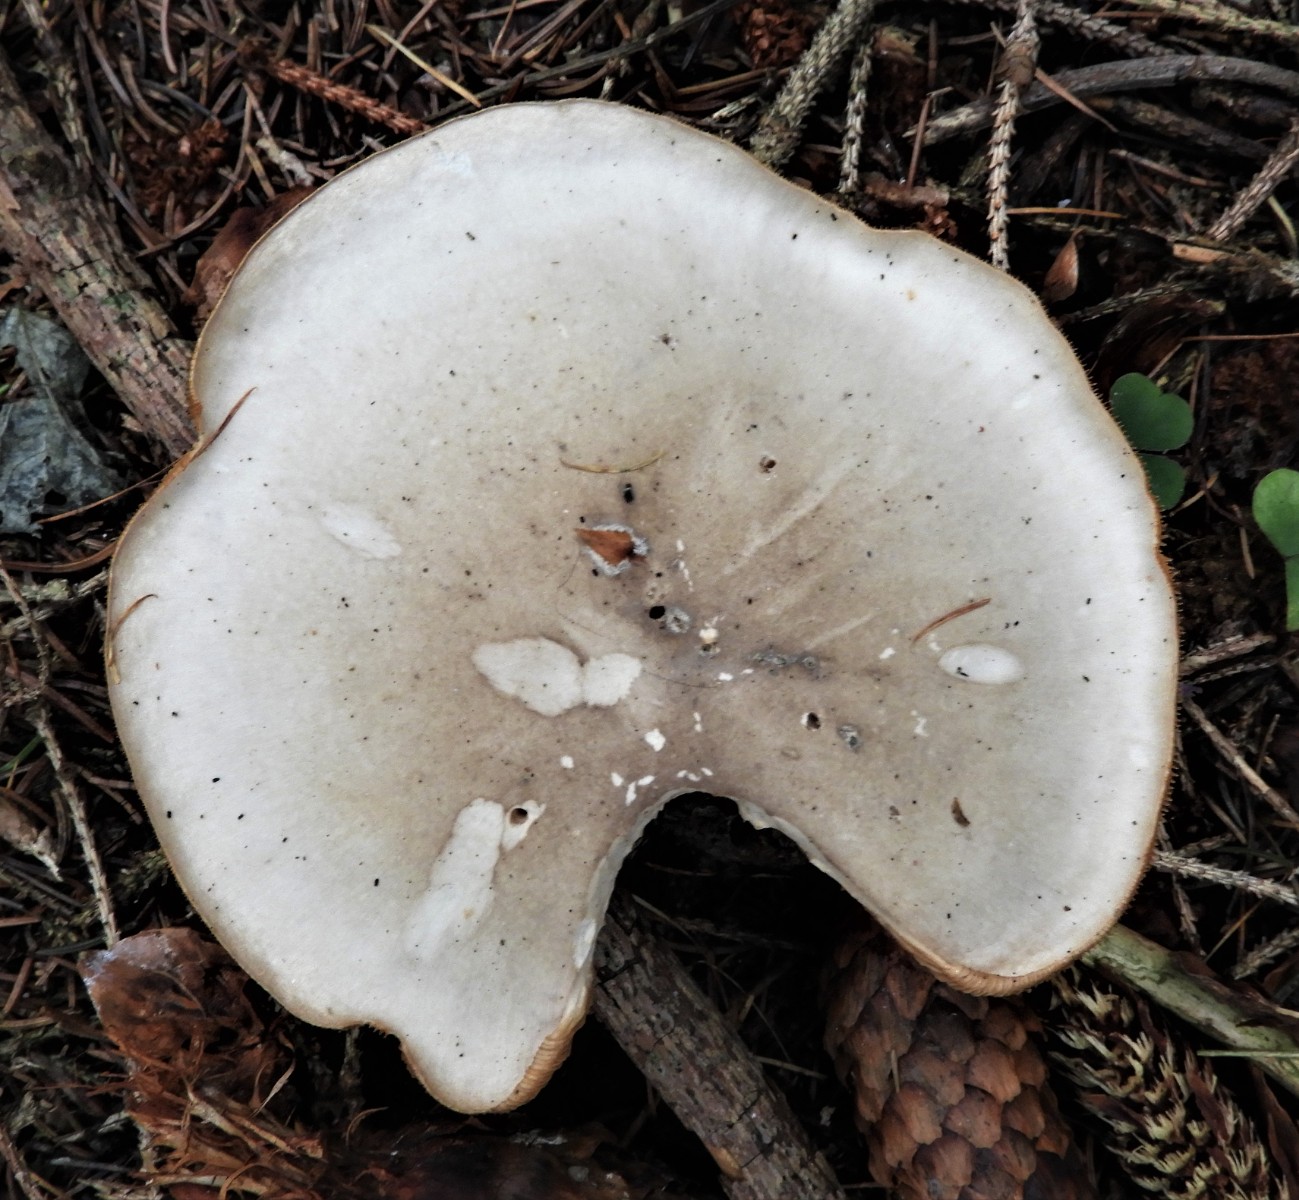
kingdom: Fungi
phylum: Basidiomycota
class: Agaricomycetes
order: Agaricales
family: Tricholomataceae
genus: Clitocybe
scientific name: Clitocybe nebularis
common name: tåge-tragthat
